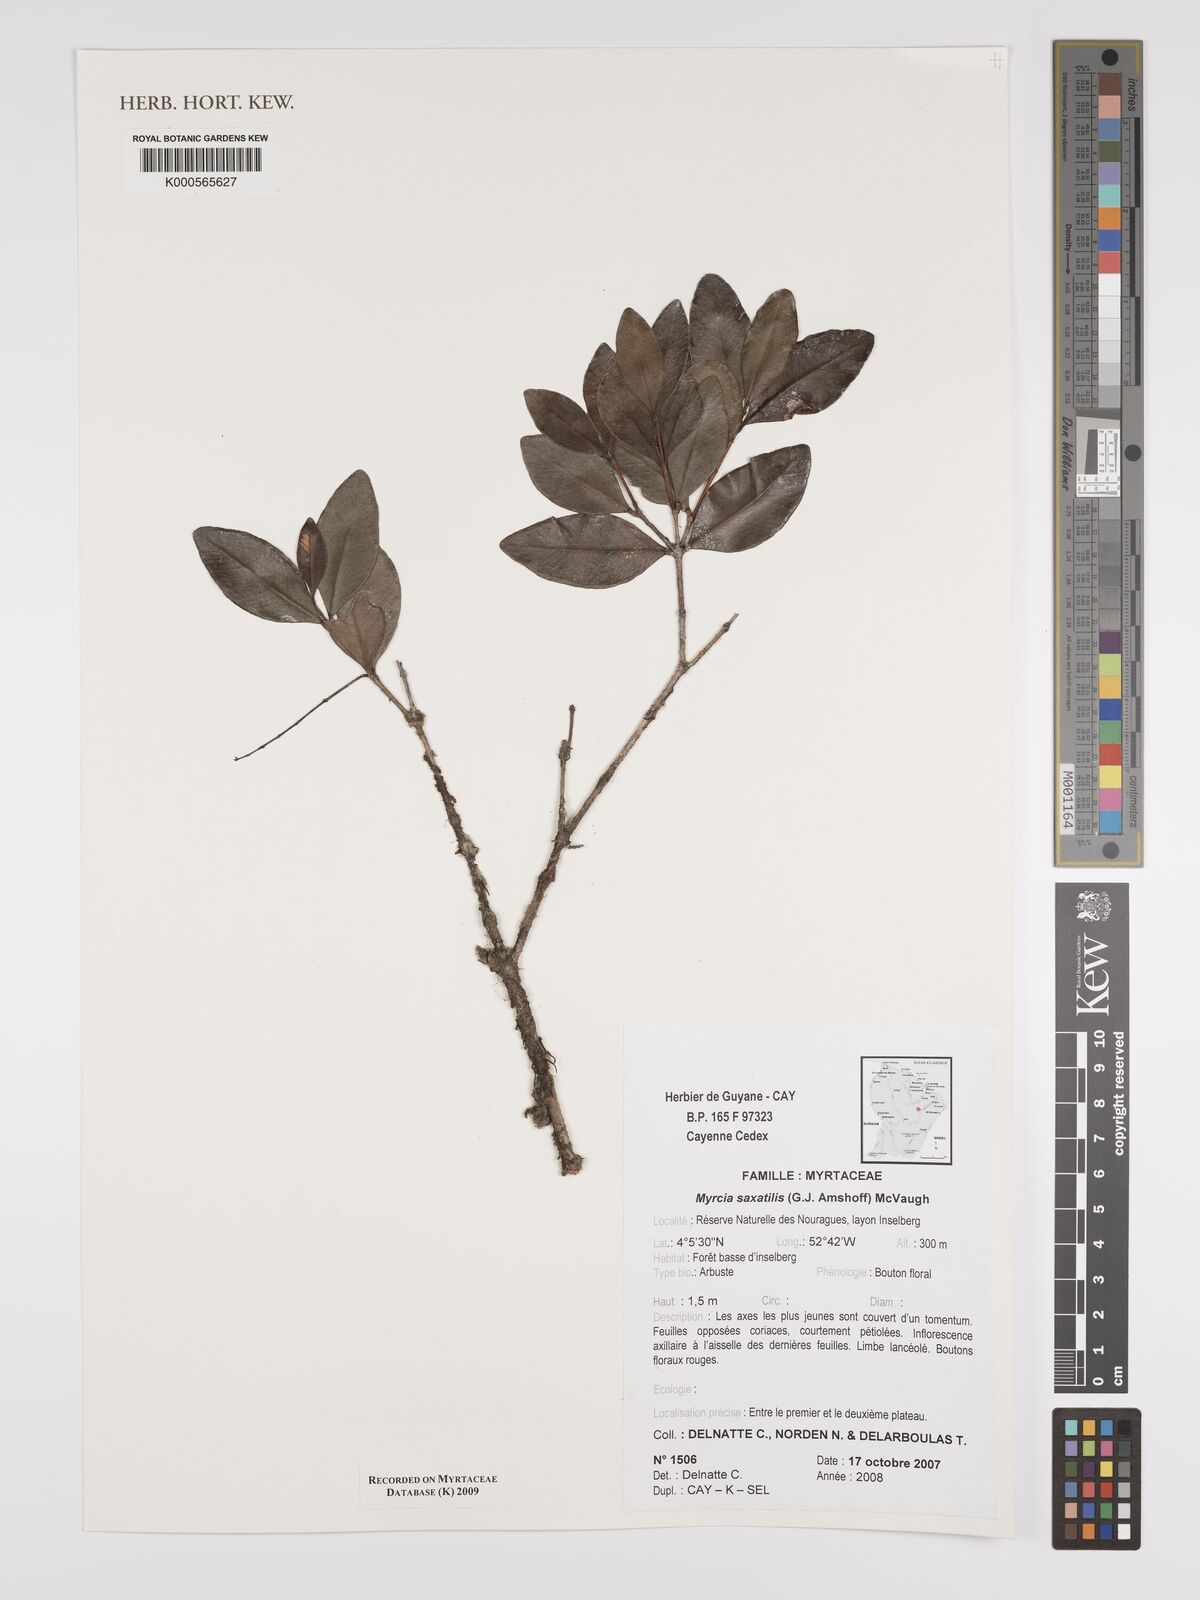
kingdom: Plantae
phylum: Tracheophyta
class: Magnoliopsida
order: Myrtales
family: Myrtaceae
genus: Myrcia
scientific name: Myrcia saxatilis
